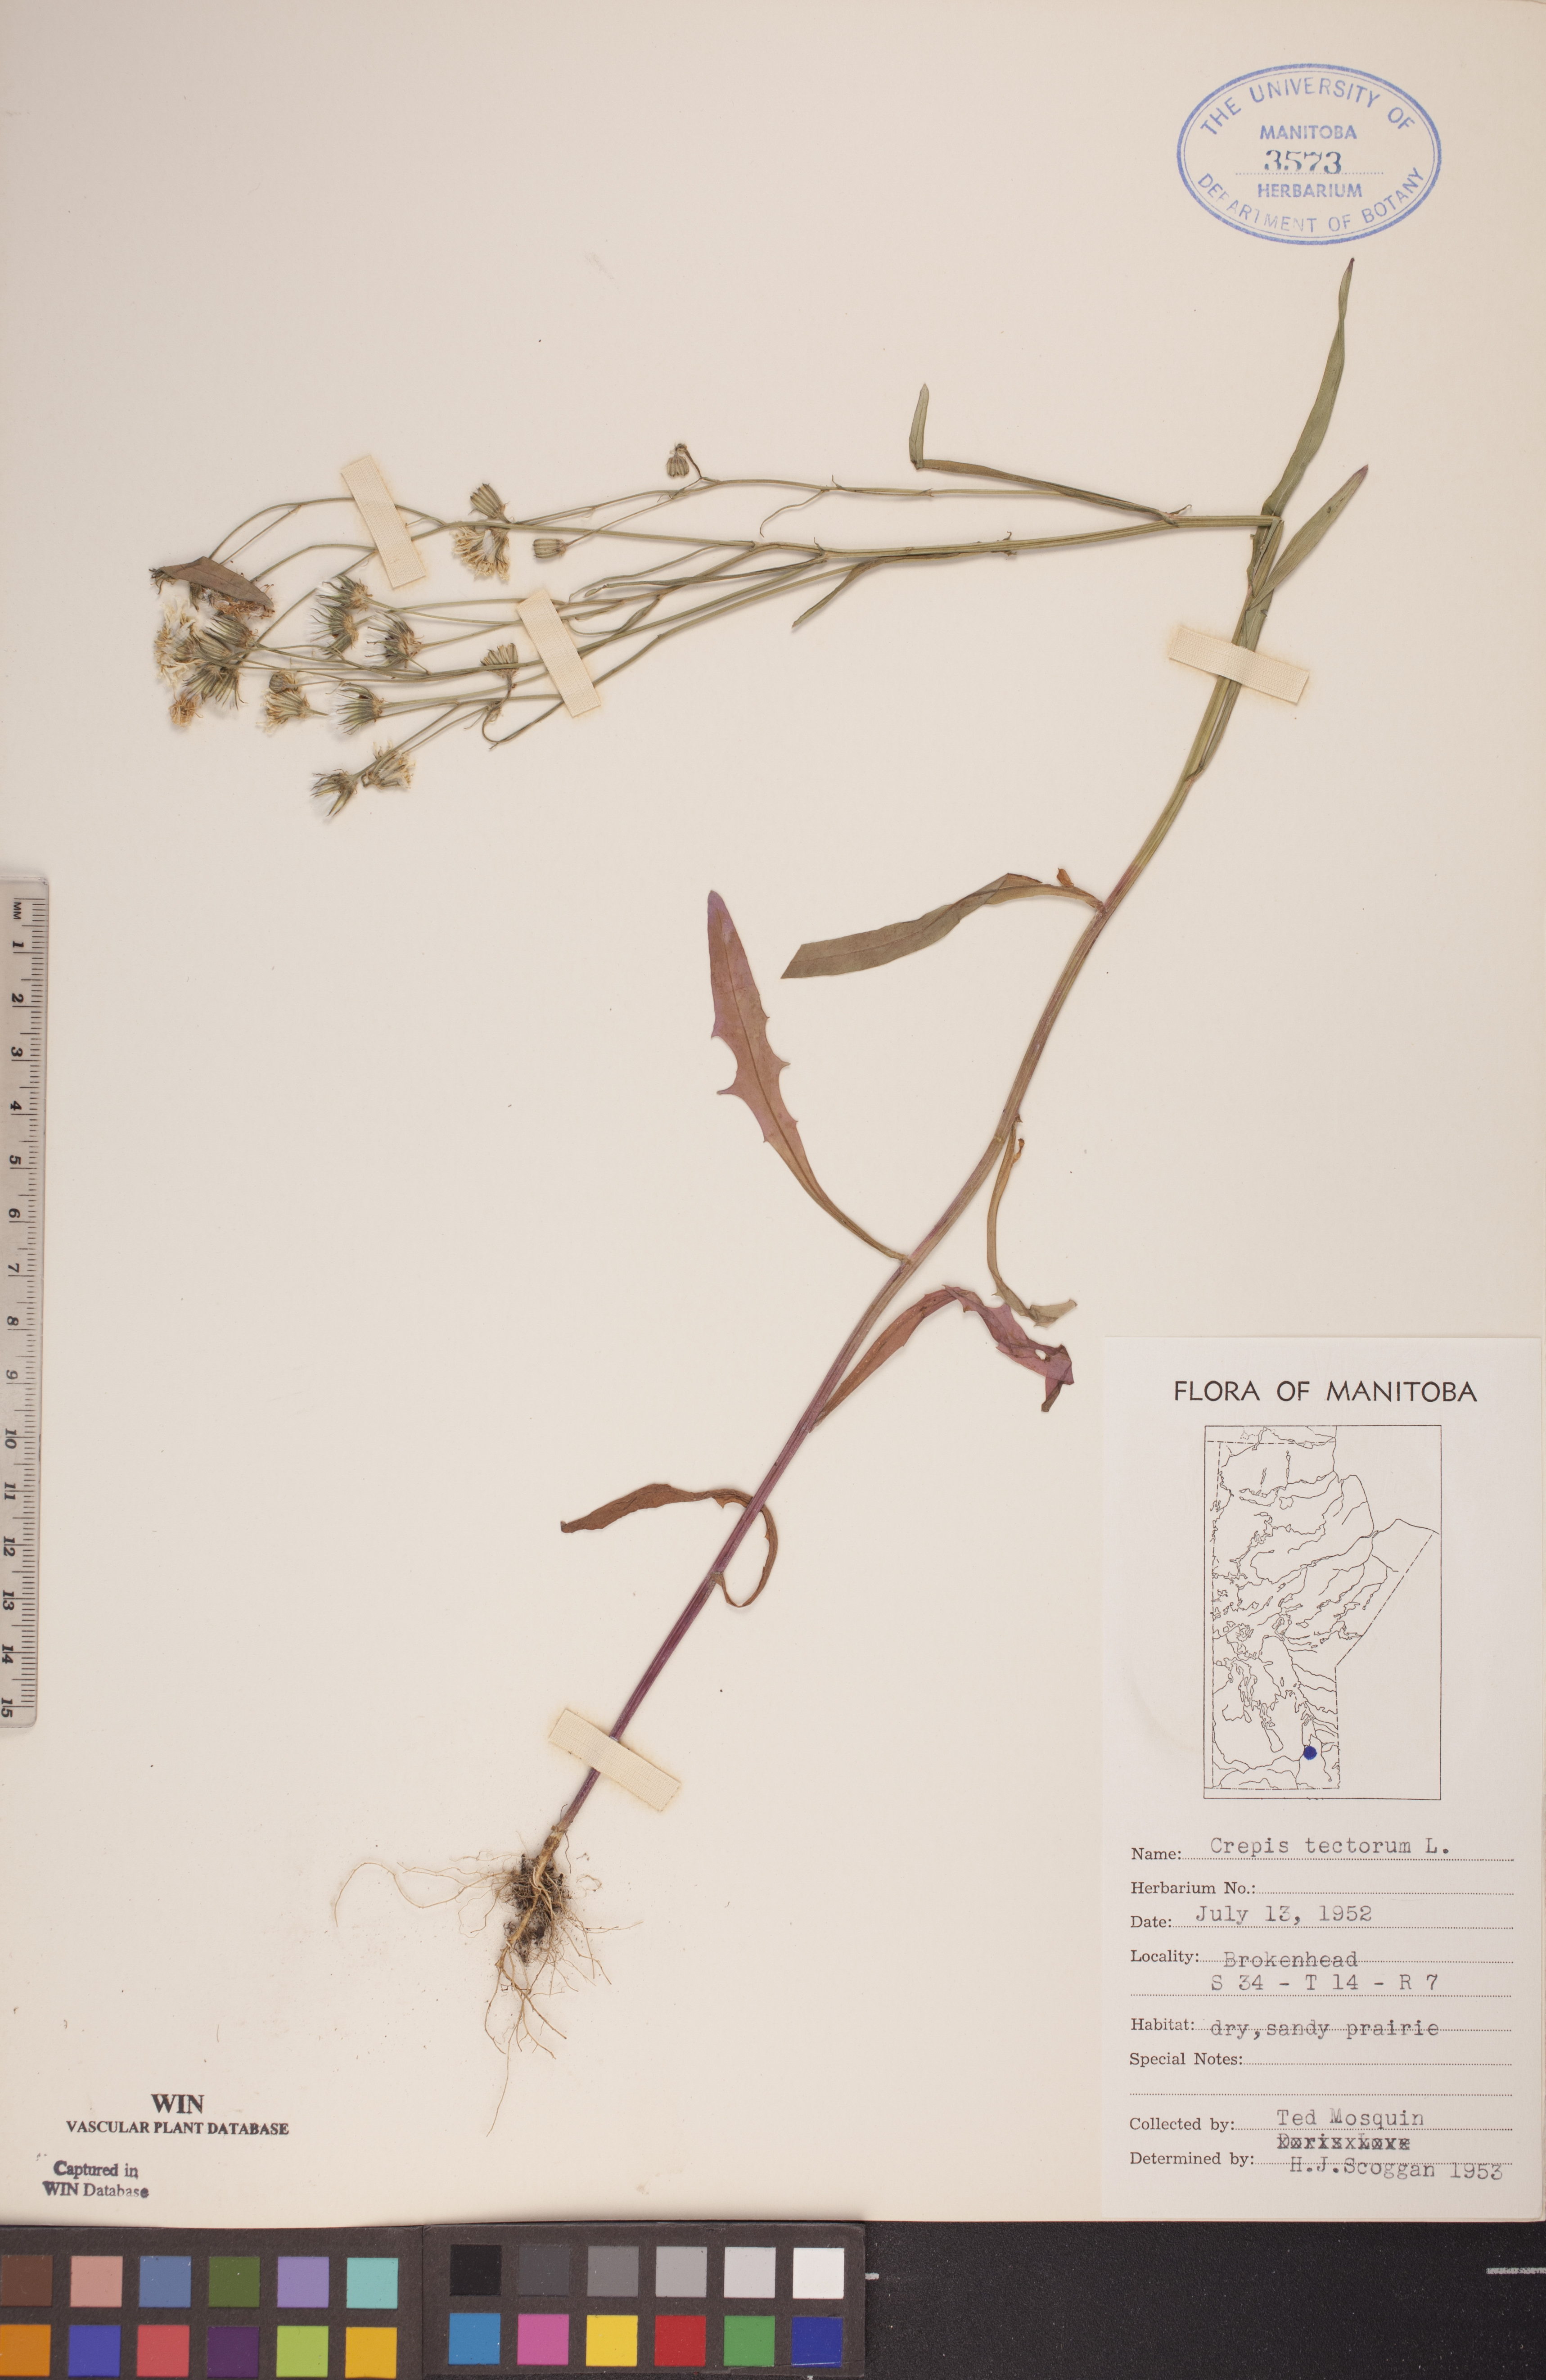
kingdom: Plantae
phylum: Tracheophyta
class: Magnoliopsida
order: Asterales
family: Asteraceae
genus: Crepis
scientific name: Crepis tectorum
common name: Narrow-leaved hawk's-beard
